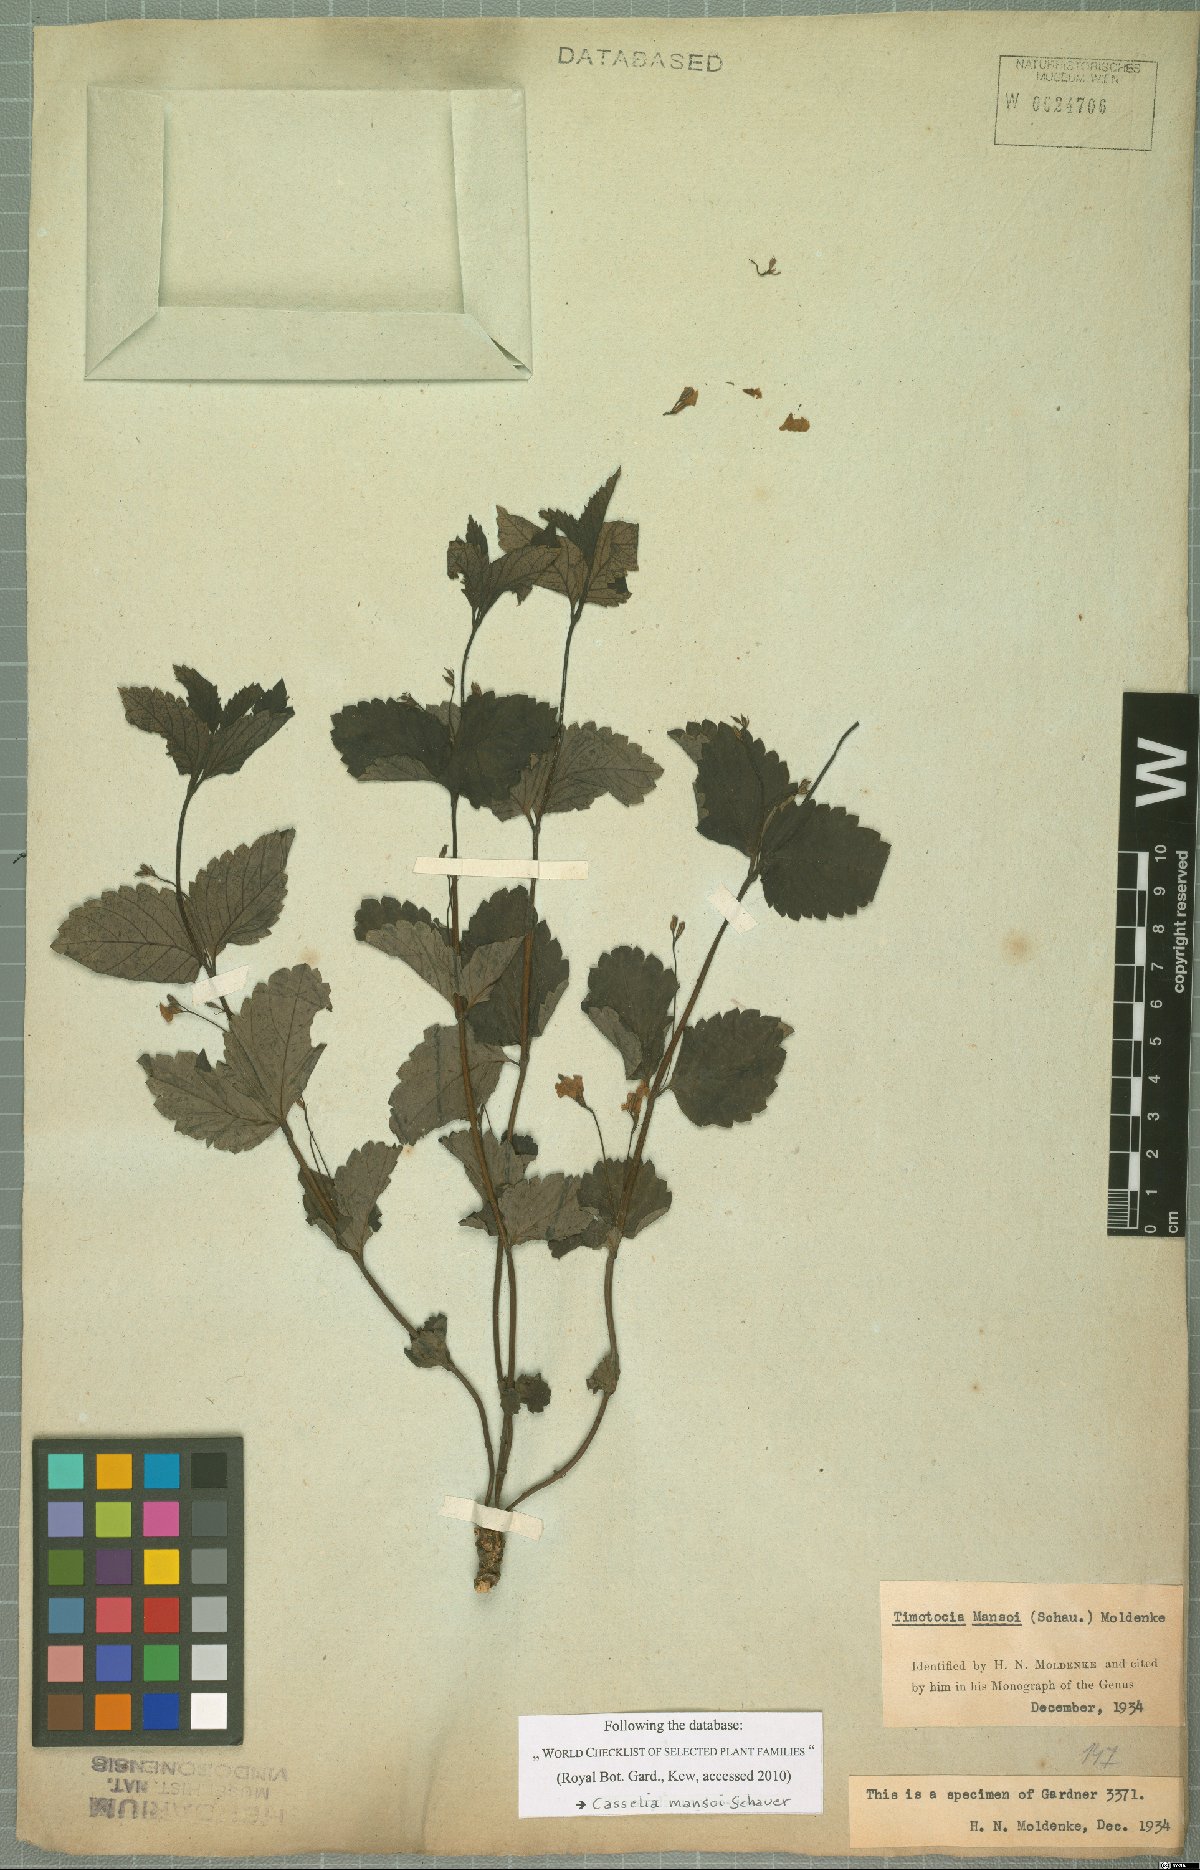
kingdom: Plantae
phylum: Tracheophyta
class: Magnoliopsida
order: Lamiales
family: Verbenaceae
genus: Casselia
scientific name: Casselia chamaedryfolia
